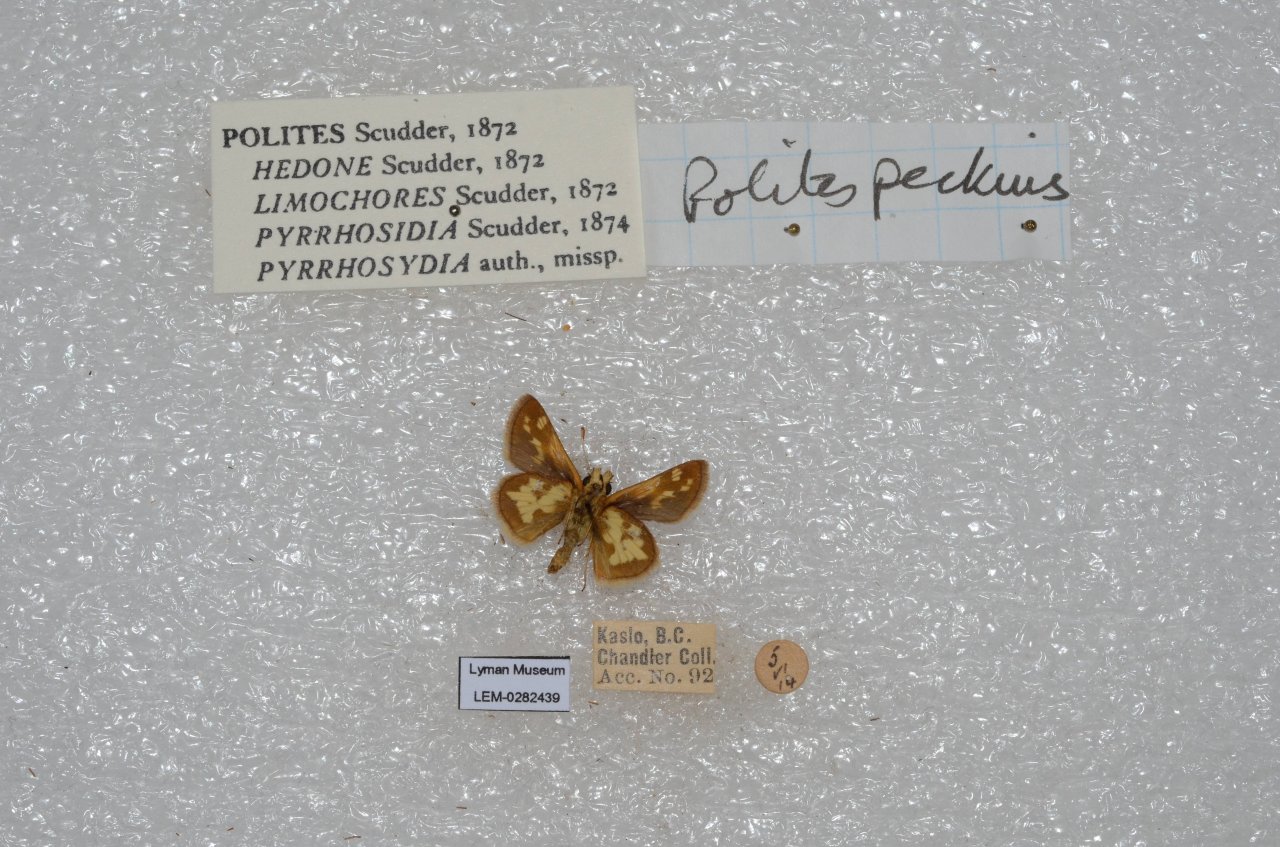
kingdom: Animalia
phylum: Arthropoda
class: Insecta
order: Lepidoptera
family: Hesperiidae
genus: Polites
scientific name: Polites coras
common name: Peck's Skipper
